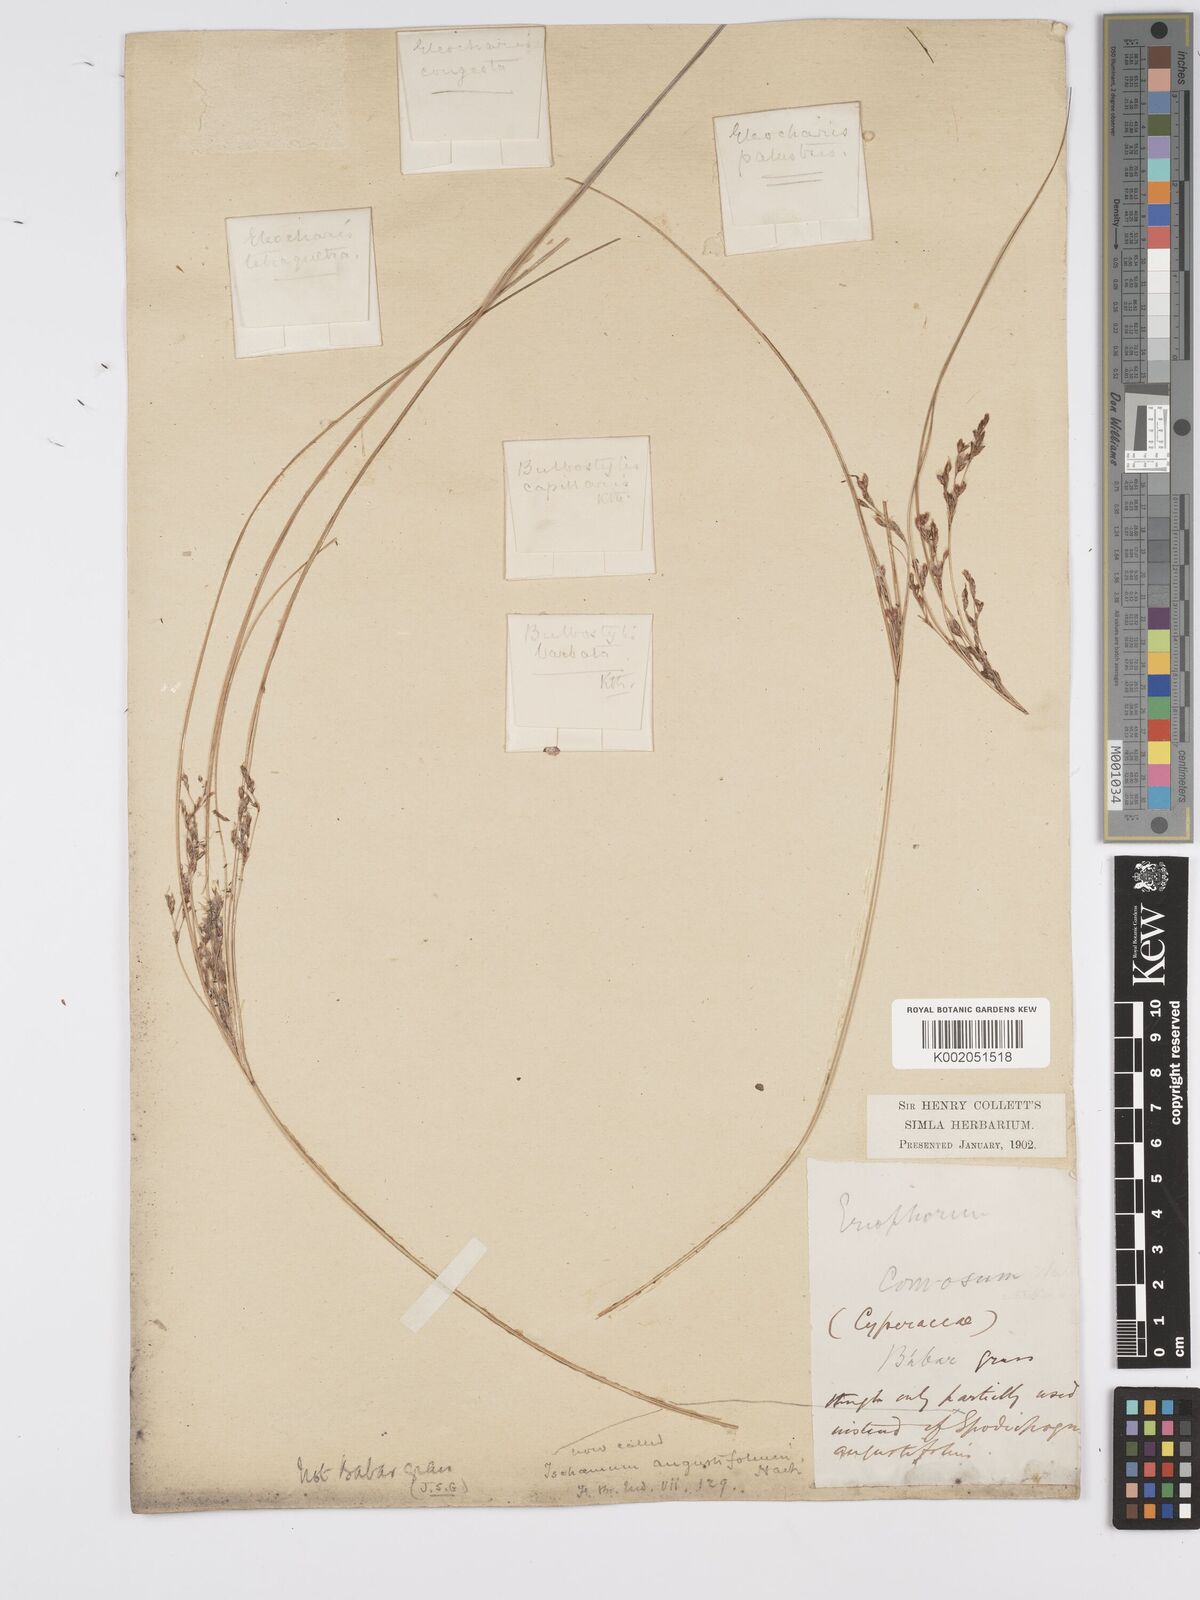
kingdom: Plantae
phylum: Tracheophyta
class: Liliopsida
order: Poales
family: Cyperaceae
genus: Erioscirpus
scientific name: Erioscirpus comosus
